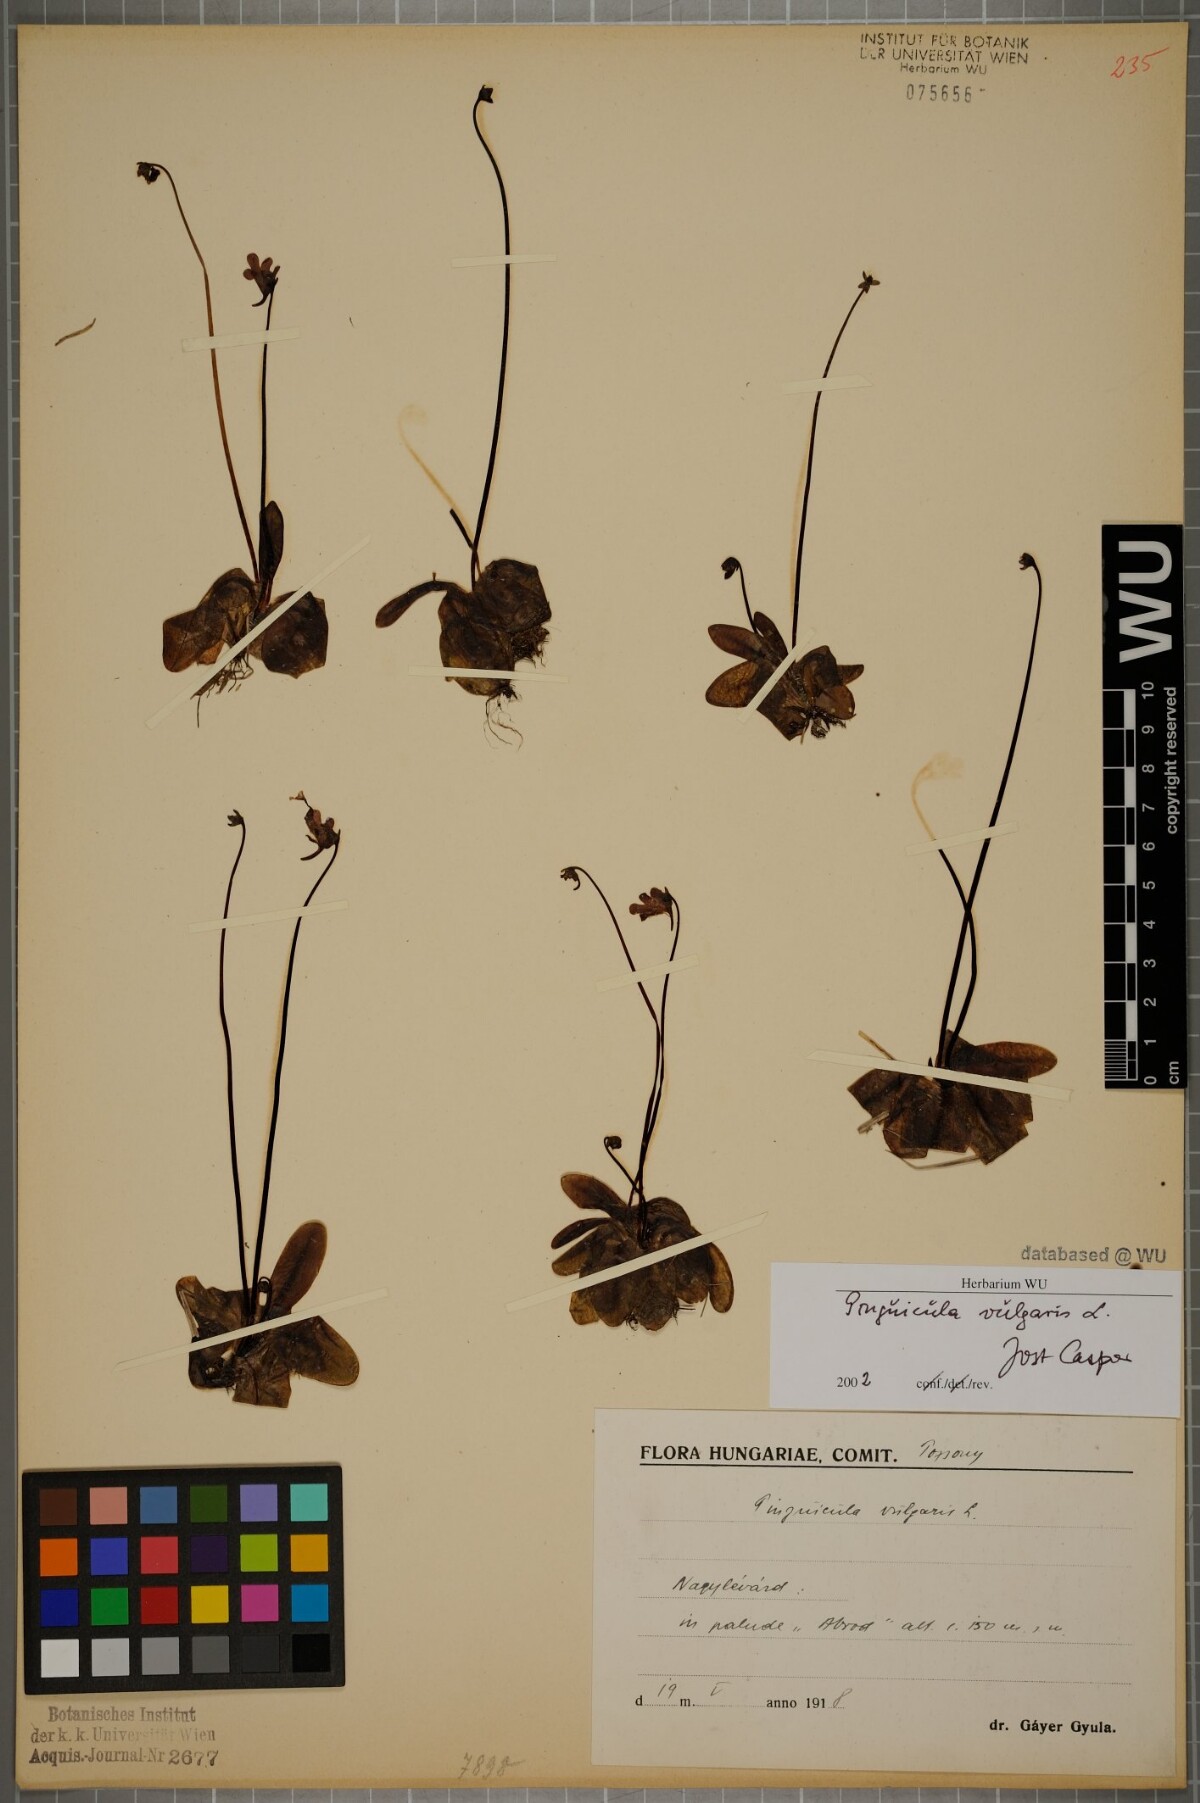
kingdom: Plantae
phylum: Tracheophyta
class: Magnoliopsida
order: Lamiales
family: Lentibulariaceae
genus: Pinguicula
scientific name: Pinguicula vulgaris
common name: Common butterwort
